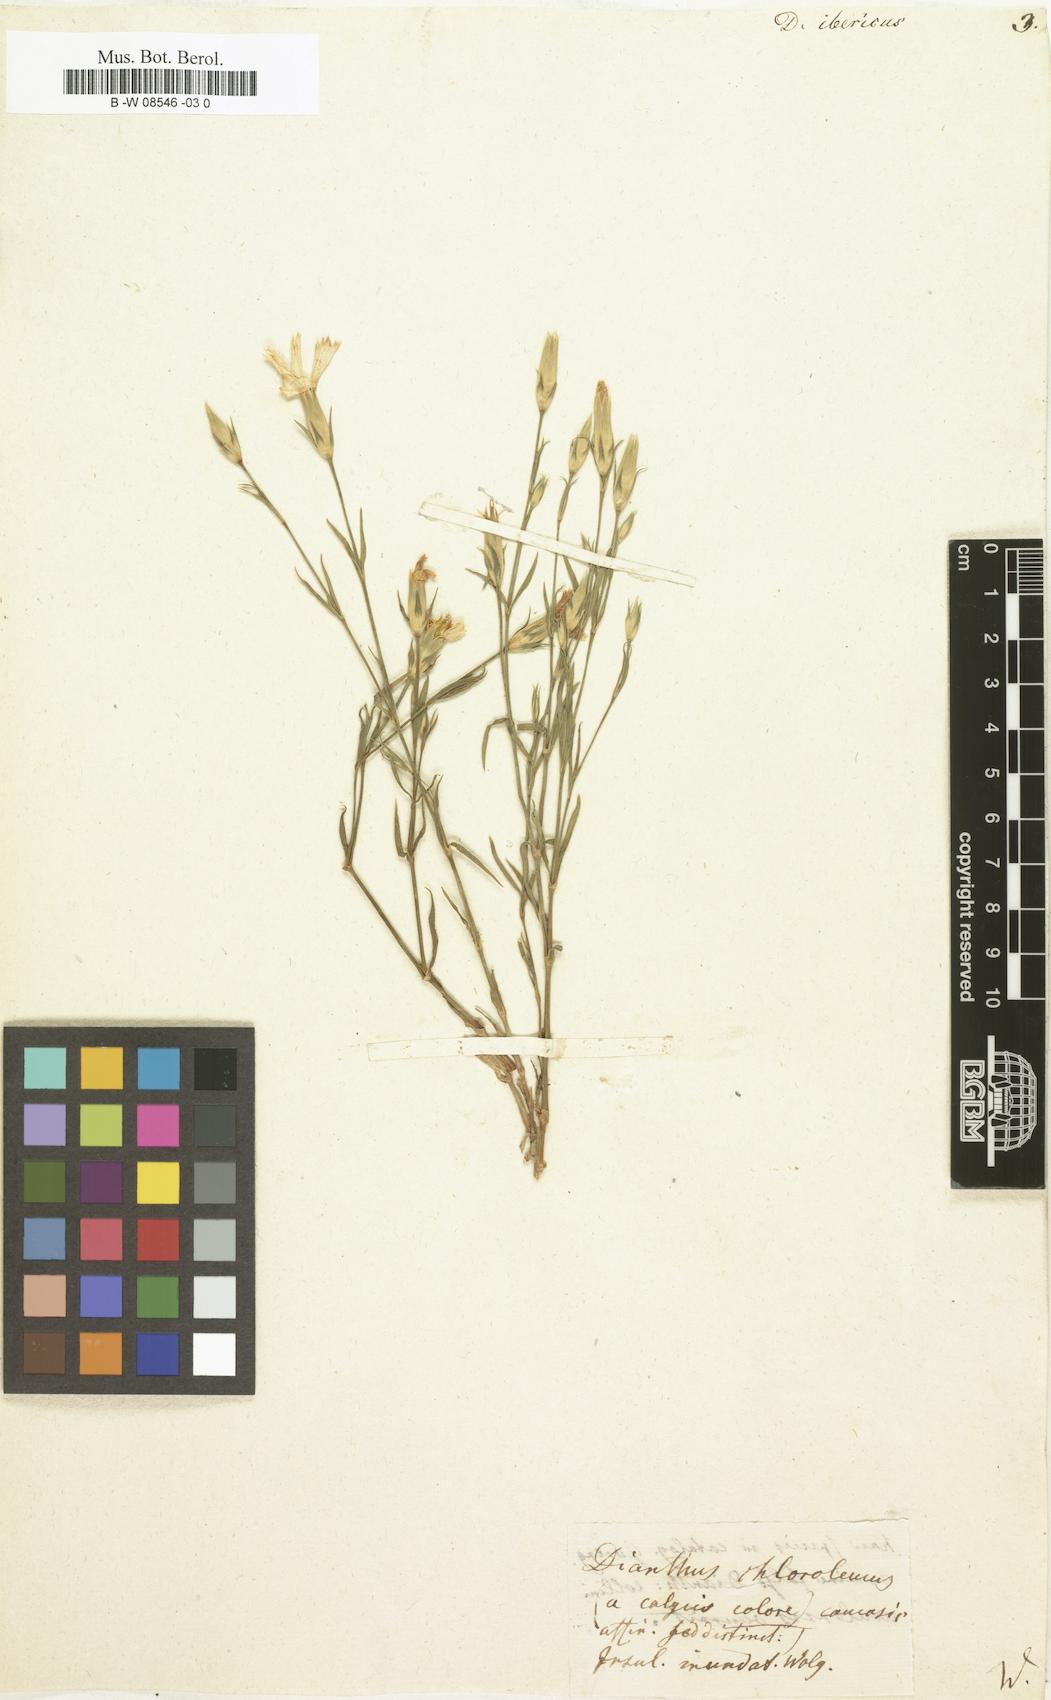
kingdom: Plantae
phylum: Tracheophyta
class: Magnoliopsida
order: Caryophyllales
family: Caryophyllaceae
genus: Dianthus
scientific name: Dianthus
